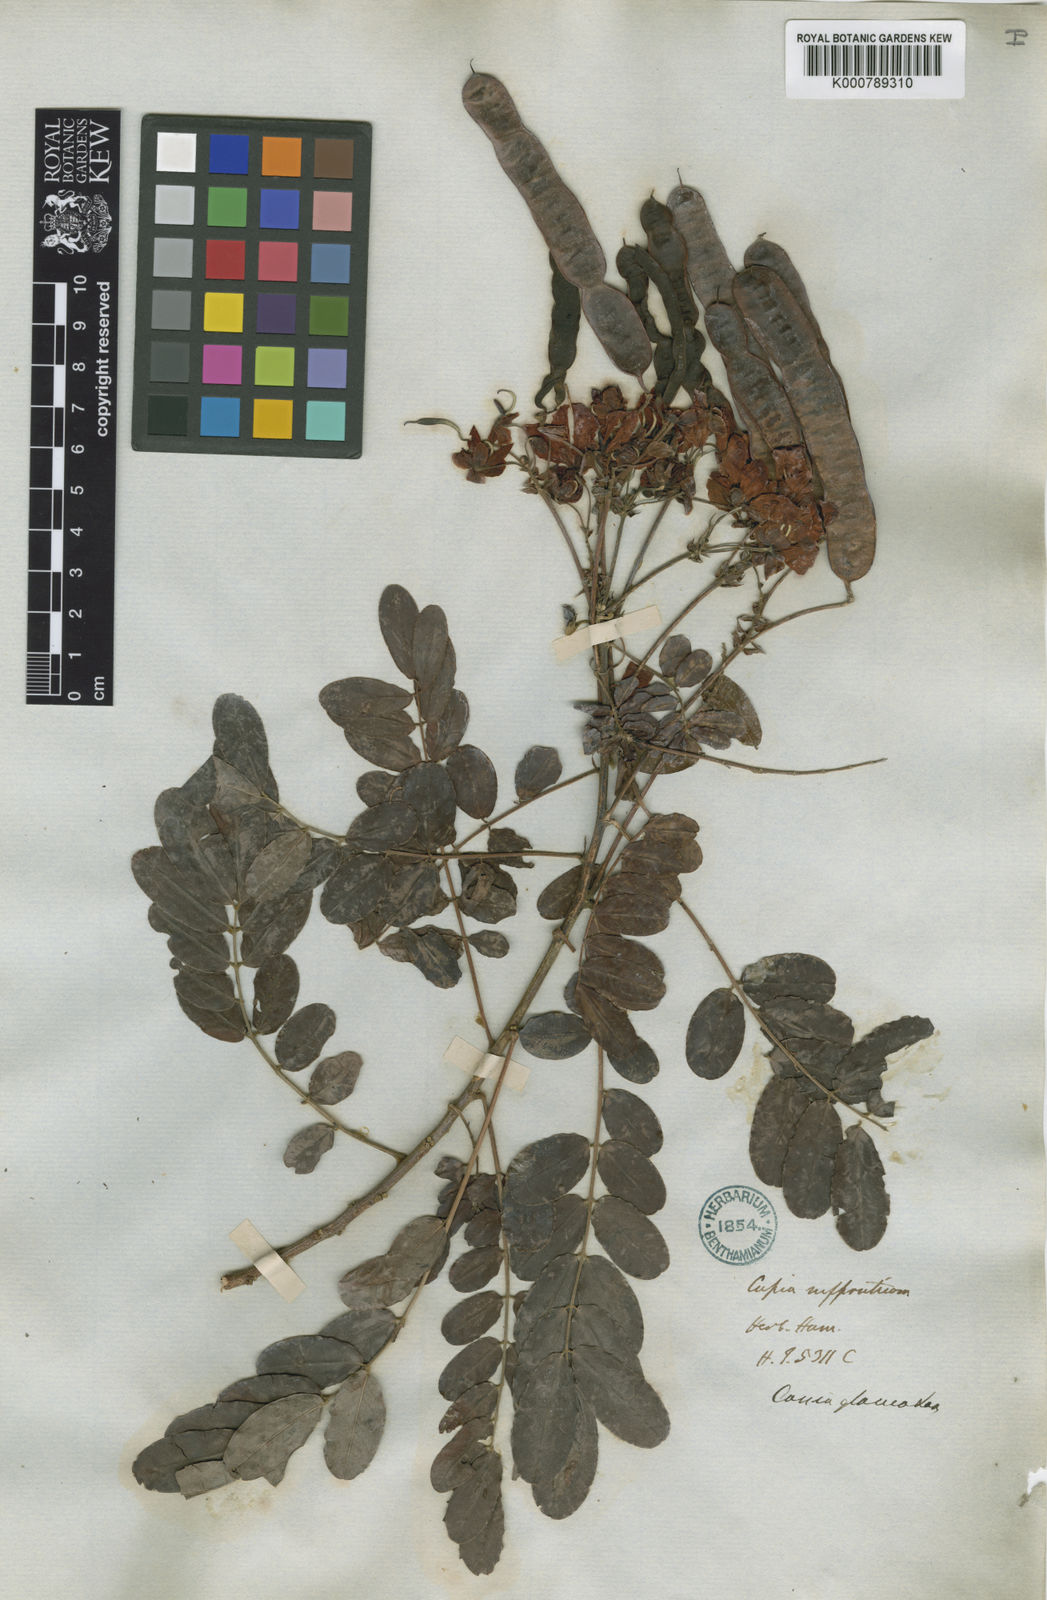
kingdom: Plantae
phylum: Tracheophyta
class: Magnoliopsida
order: Fabales
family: Fabaceae
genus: Senna
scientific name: Senna surattensis
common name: Glossy shower
